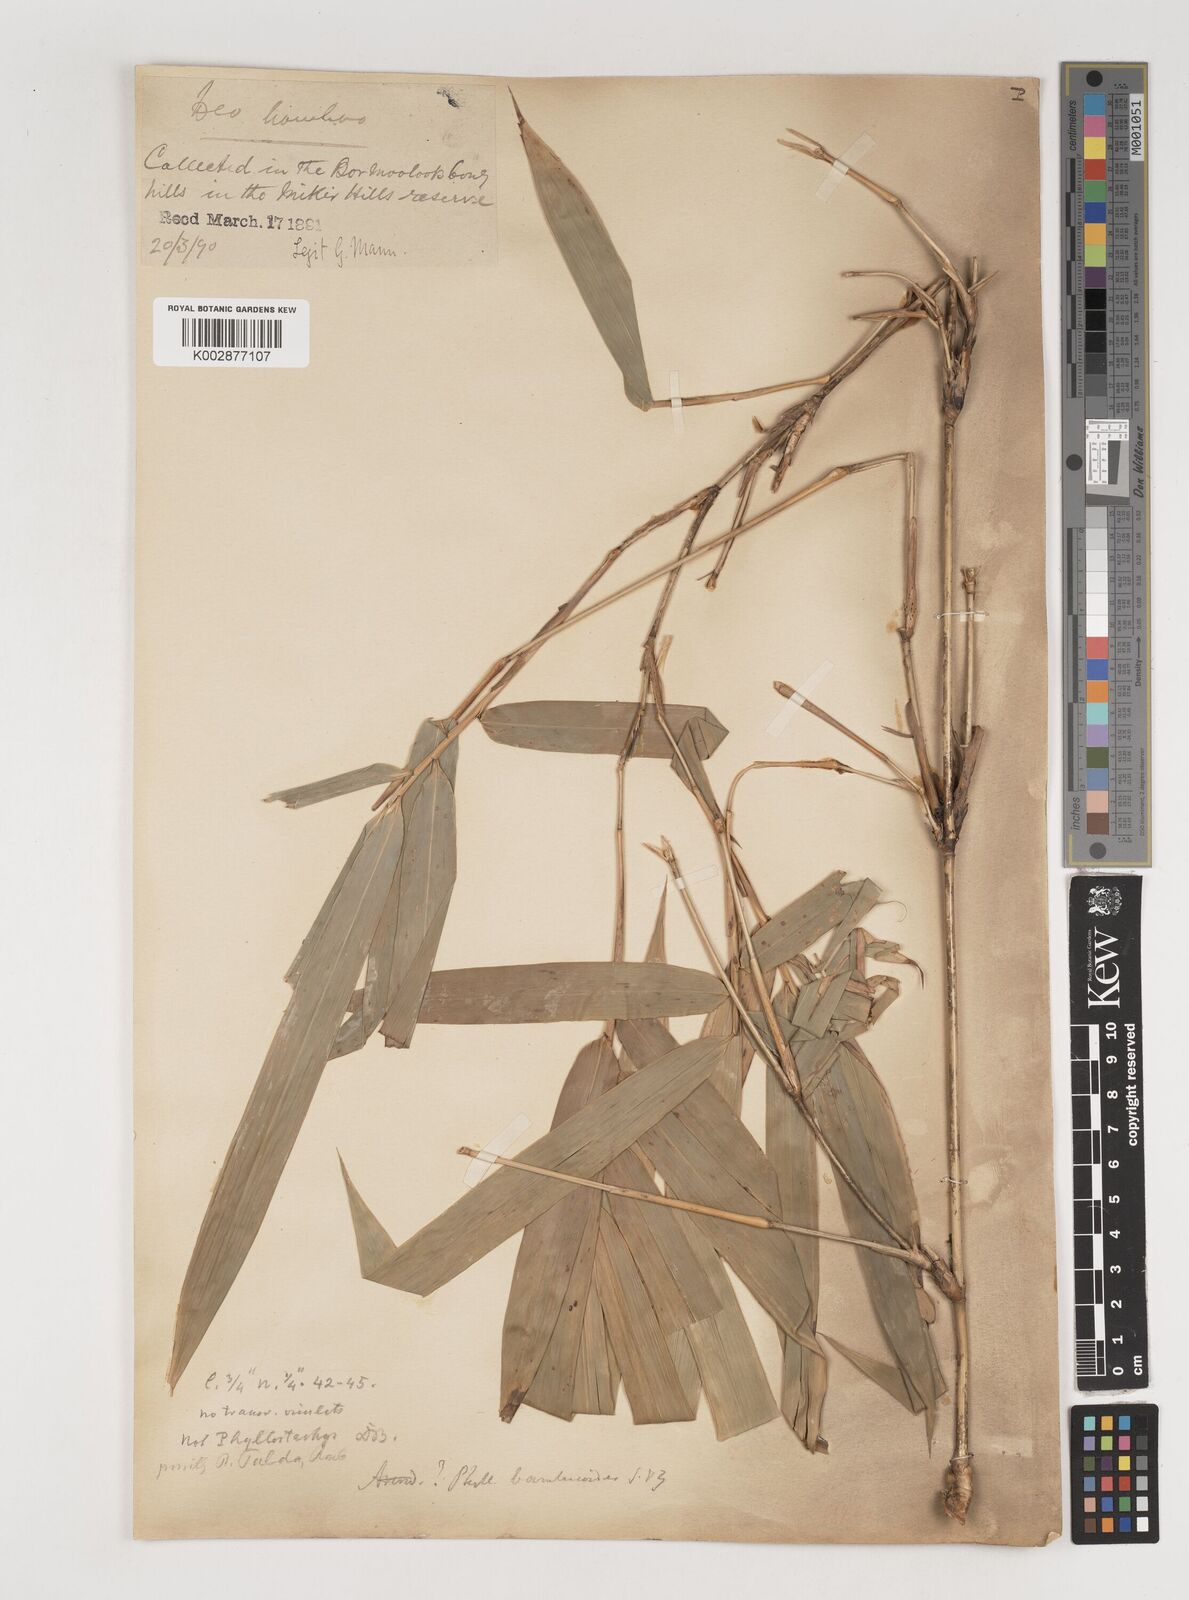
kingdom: Plantae
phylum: Tracheophyta
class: Liliopsida
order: Poales
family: Poaceae
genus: Bambusa
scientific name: Bambusa
